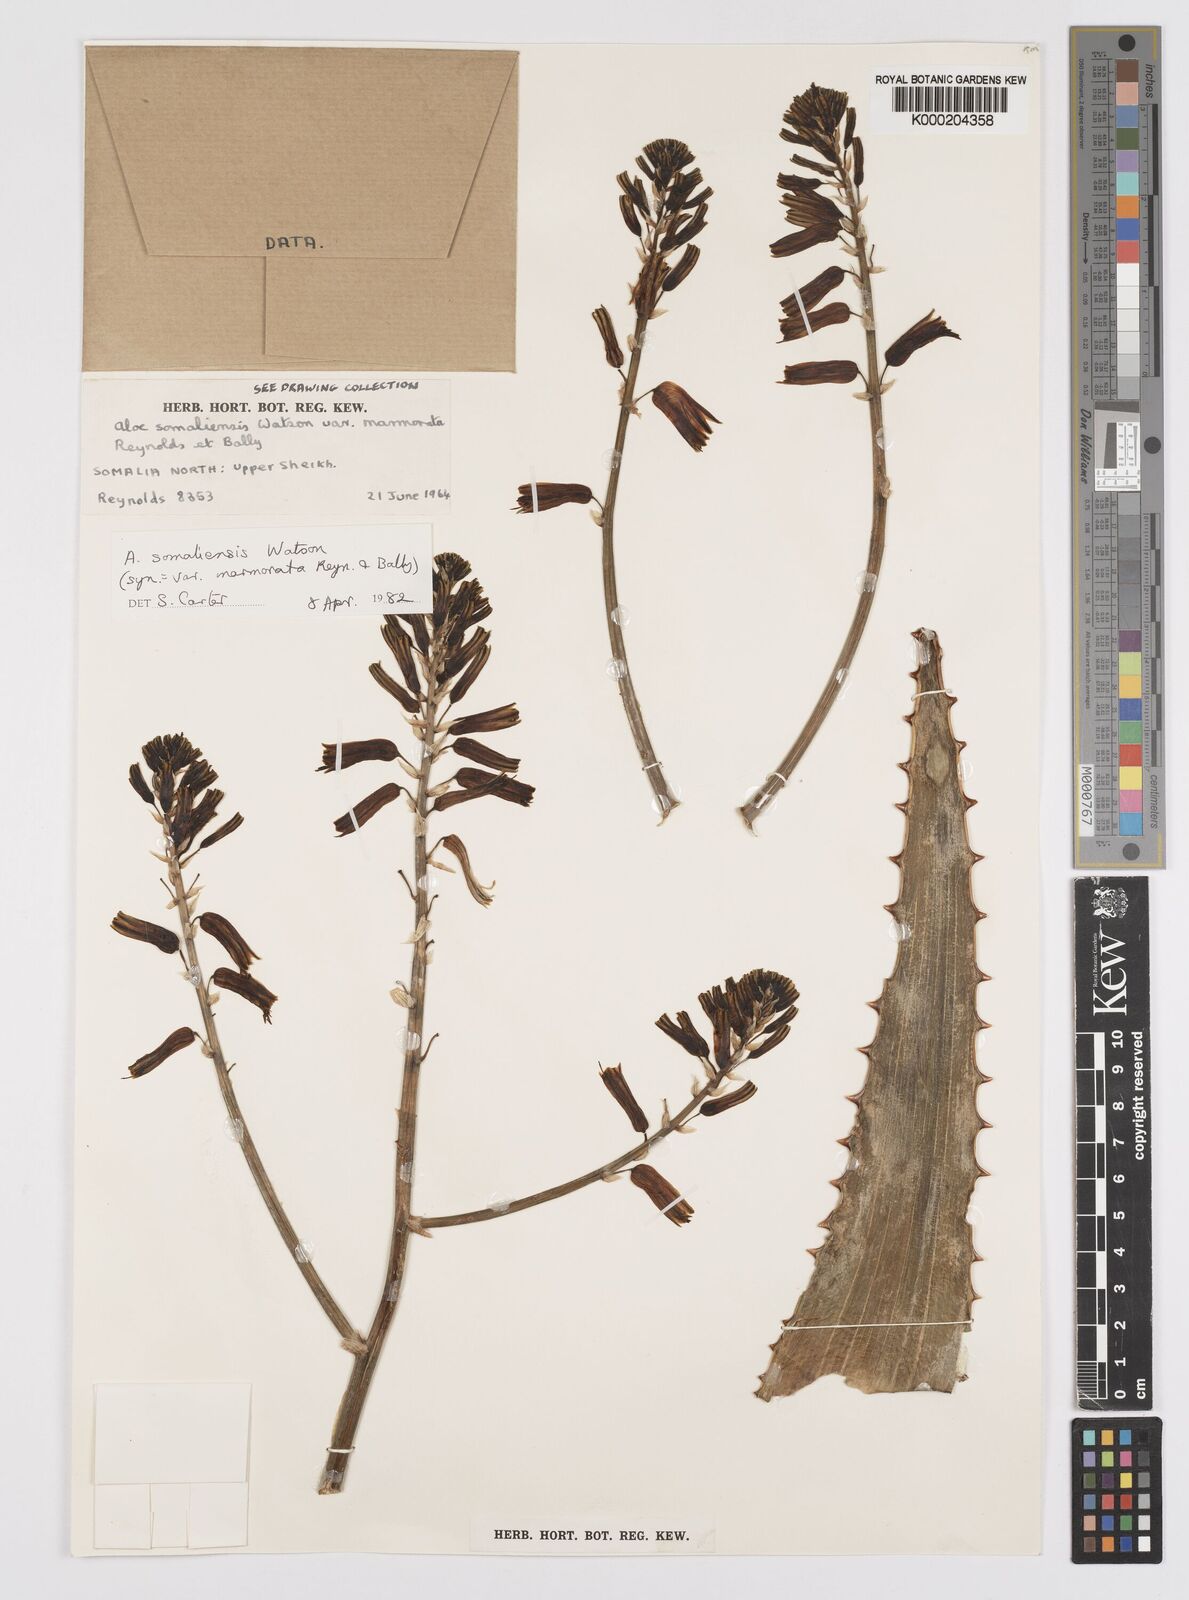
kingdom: Plantae
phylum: Tracheophyta
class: Liliopsida
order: Asparagales
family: Asphodelaceae
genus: Aloe
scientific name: Aloe somaliensis
